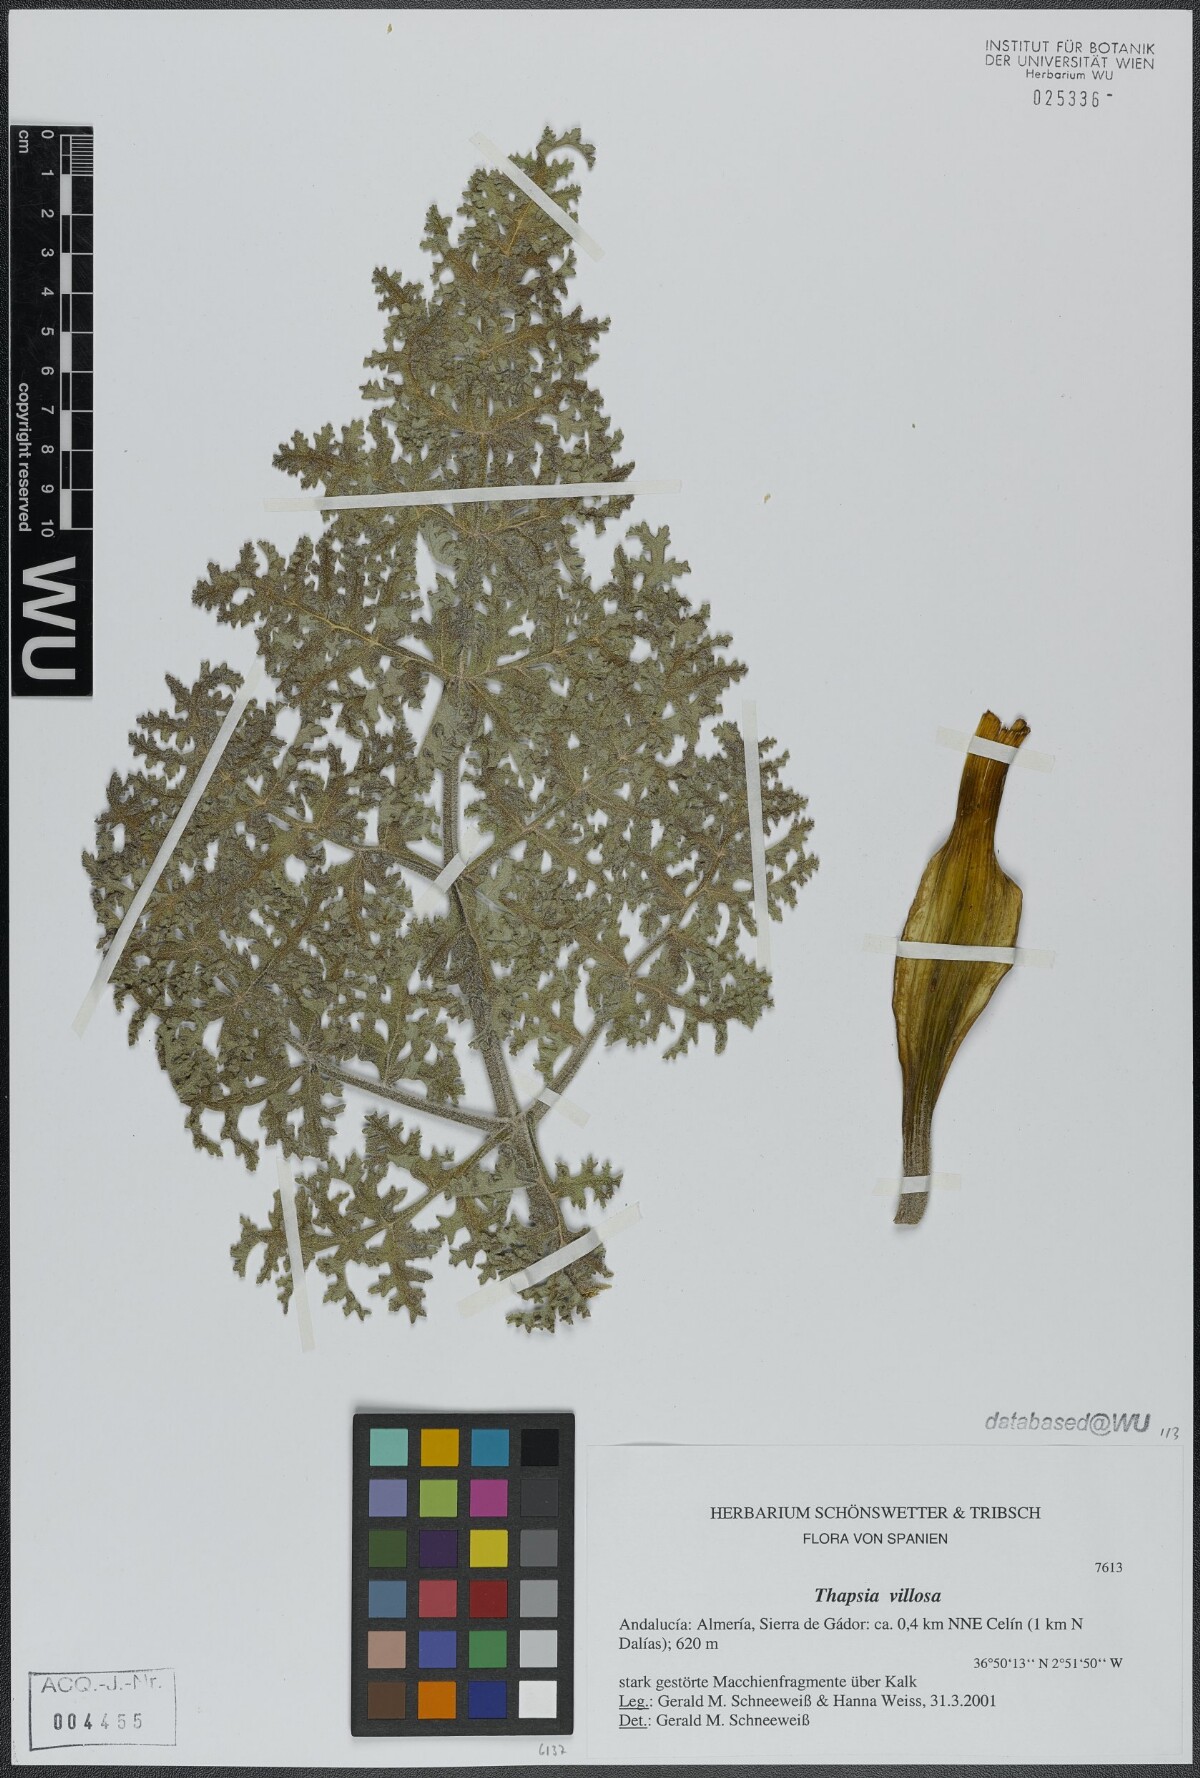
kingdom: Plantae
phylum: Tracheophyta
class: Magnoliopsida
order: Apiales
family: Apiaceae
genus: Thapsia
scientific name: Thapsia villosa
